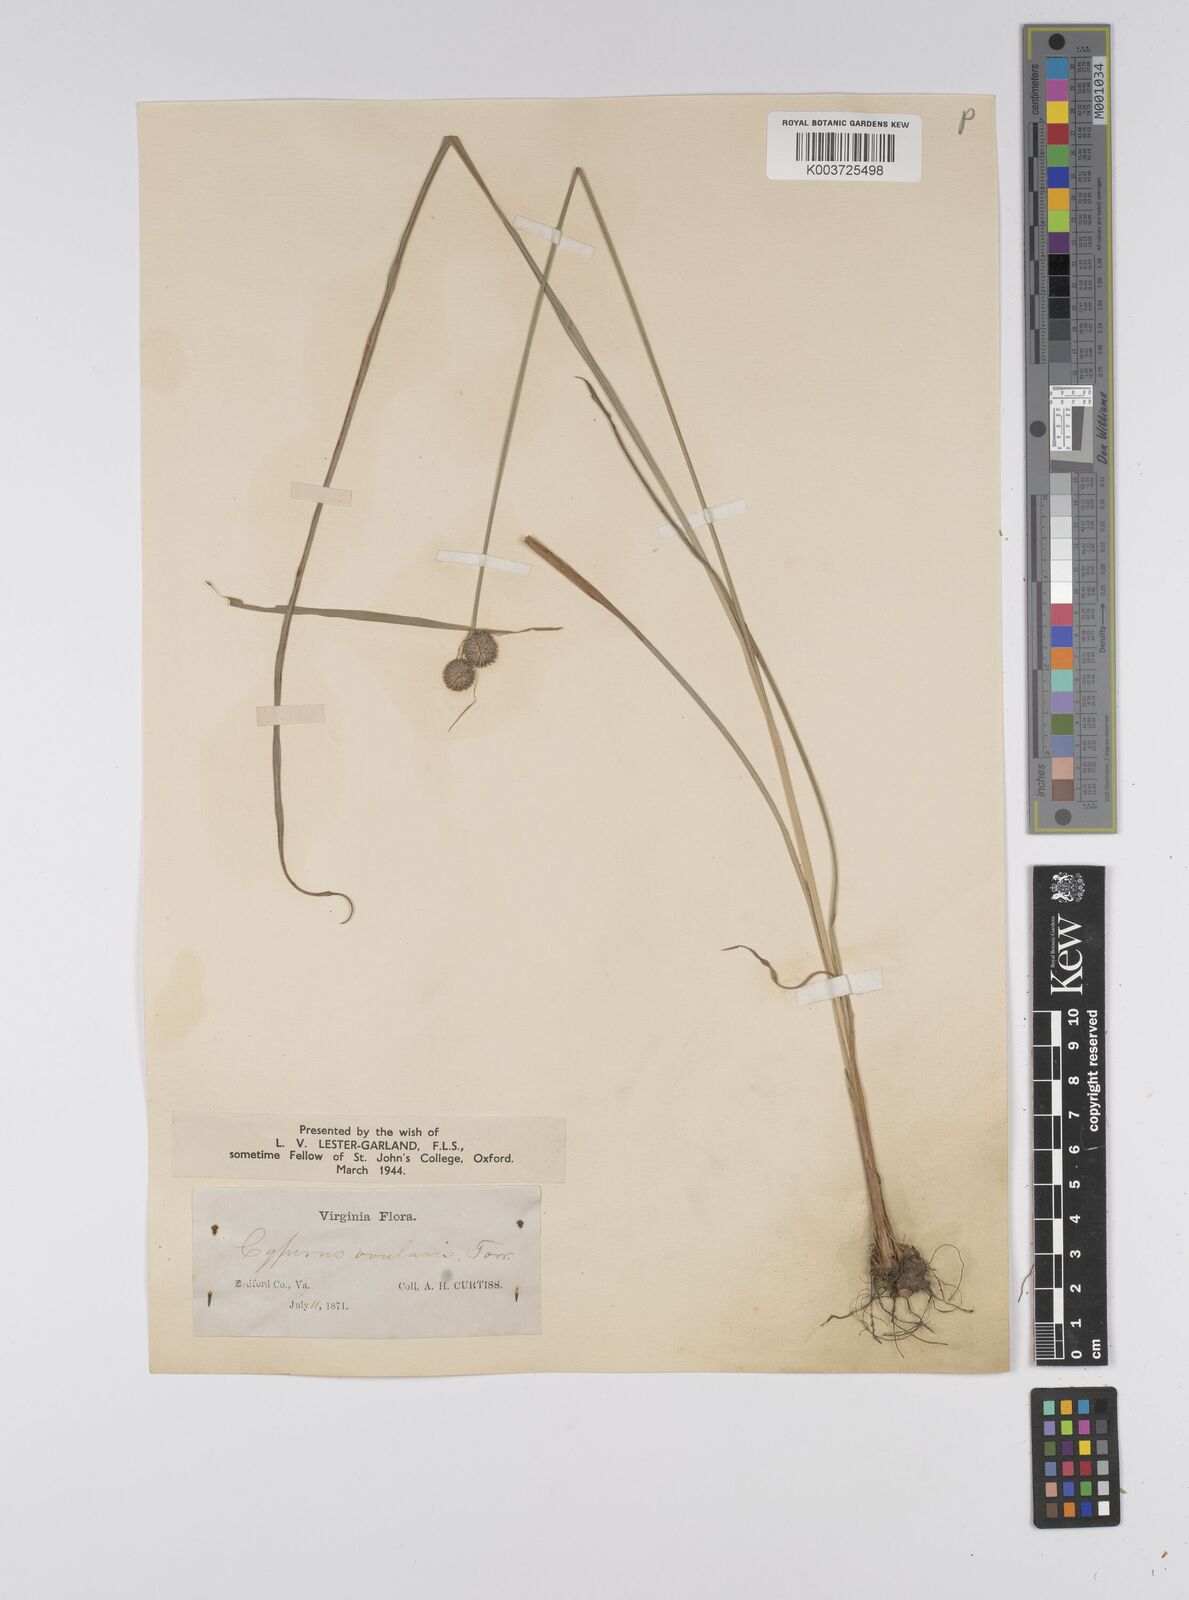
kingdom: Plantae
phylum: Tracheophyta
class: Liliopsida
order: Poales
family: Cyperaceae
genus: Cyperus
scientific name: Cyperus echinatus
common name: Teasel sedge
